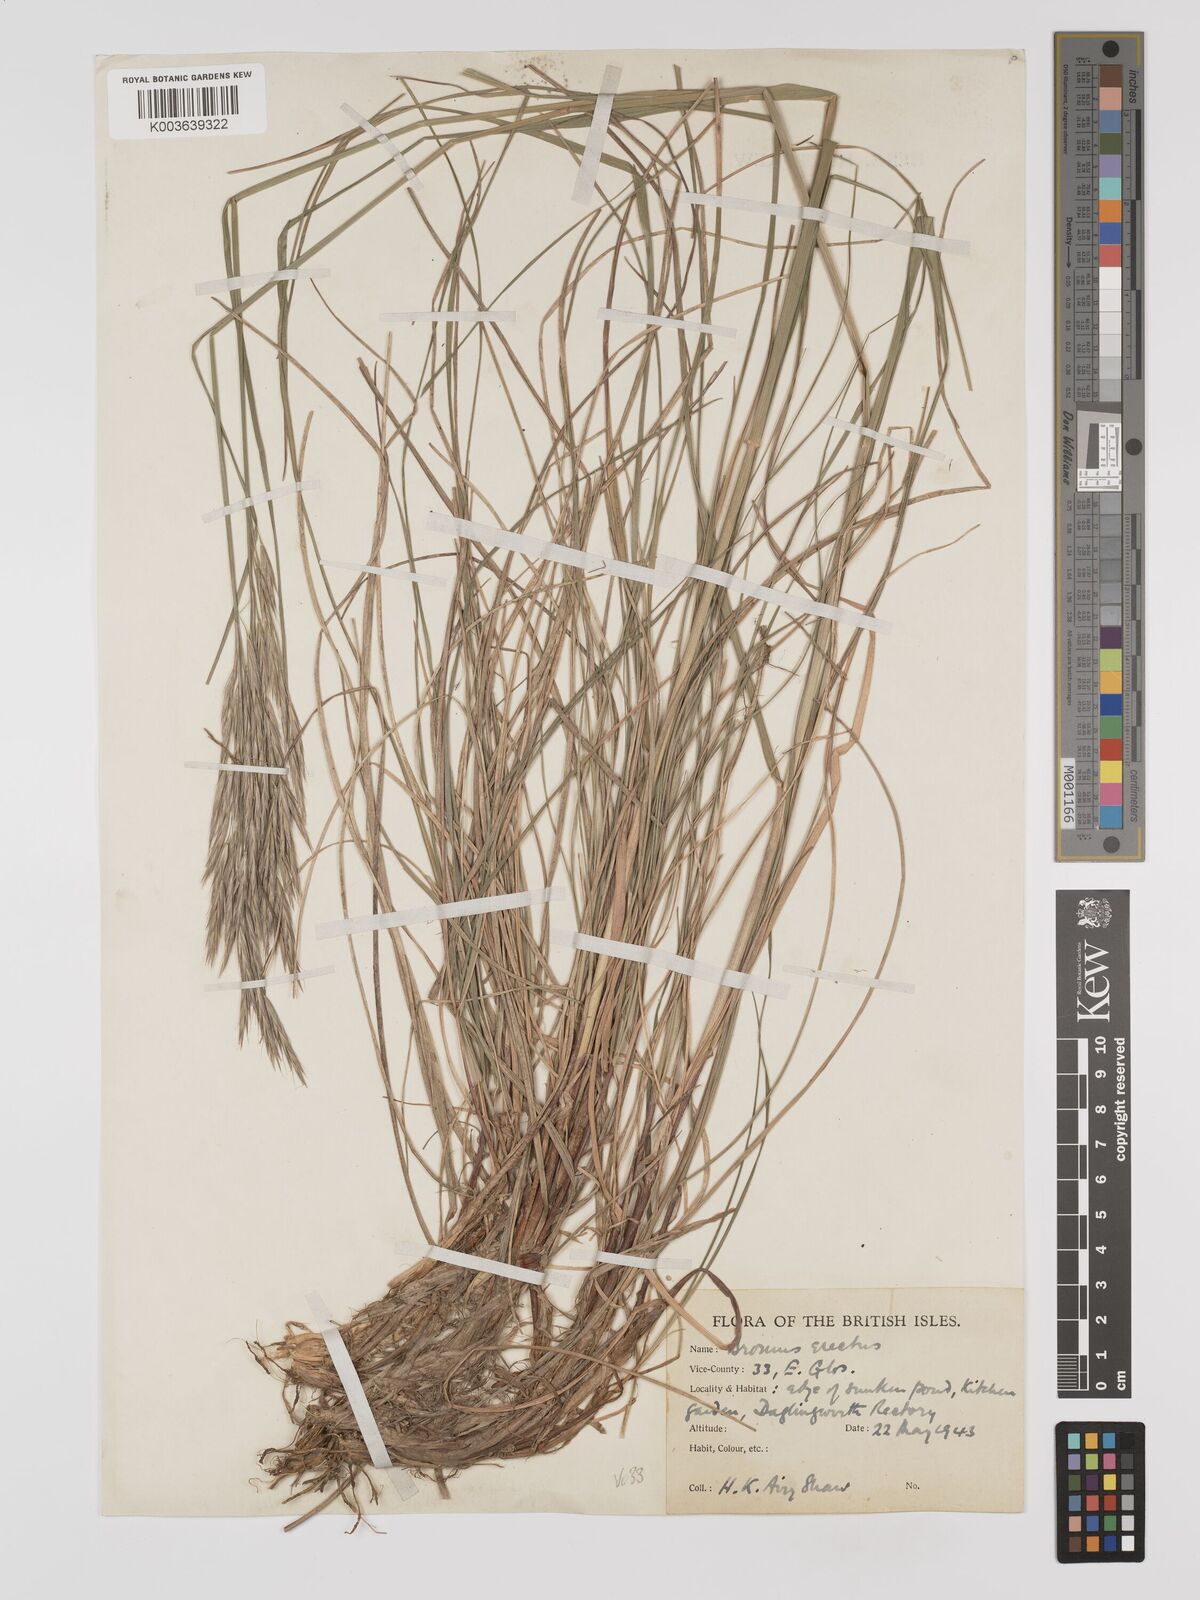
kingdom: Plantae
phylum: Tracheophyta
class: Liliopsida
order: Poales
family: Poaceae
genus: Bromus
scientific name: Bromus erectus
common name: Erect brome
